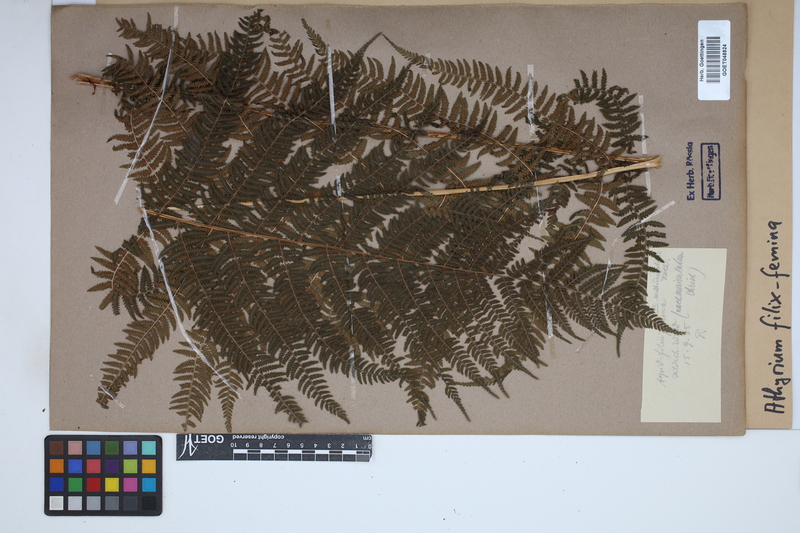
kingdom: Plantae
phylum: Tracheophyta
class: Polypodiopsida
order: Polypodiales
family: Athyriaceae
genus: Athyrium
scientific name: Athyrium filix-femina
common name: Lady fern
